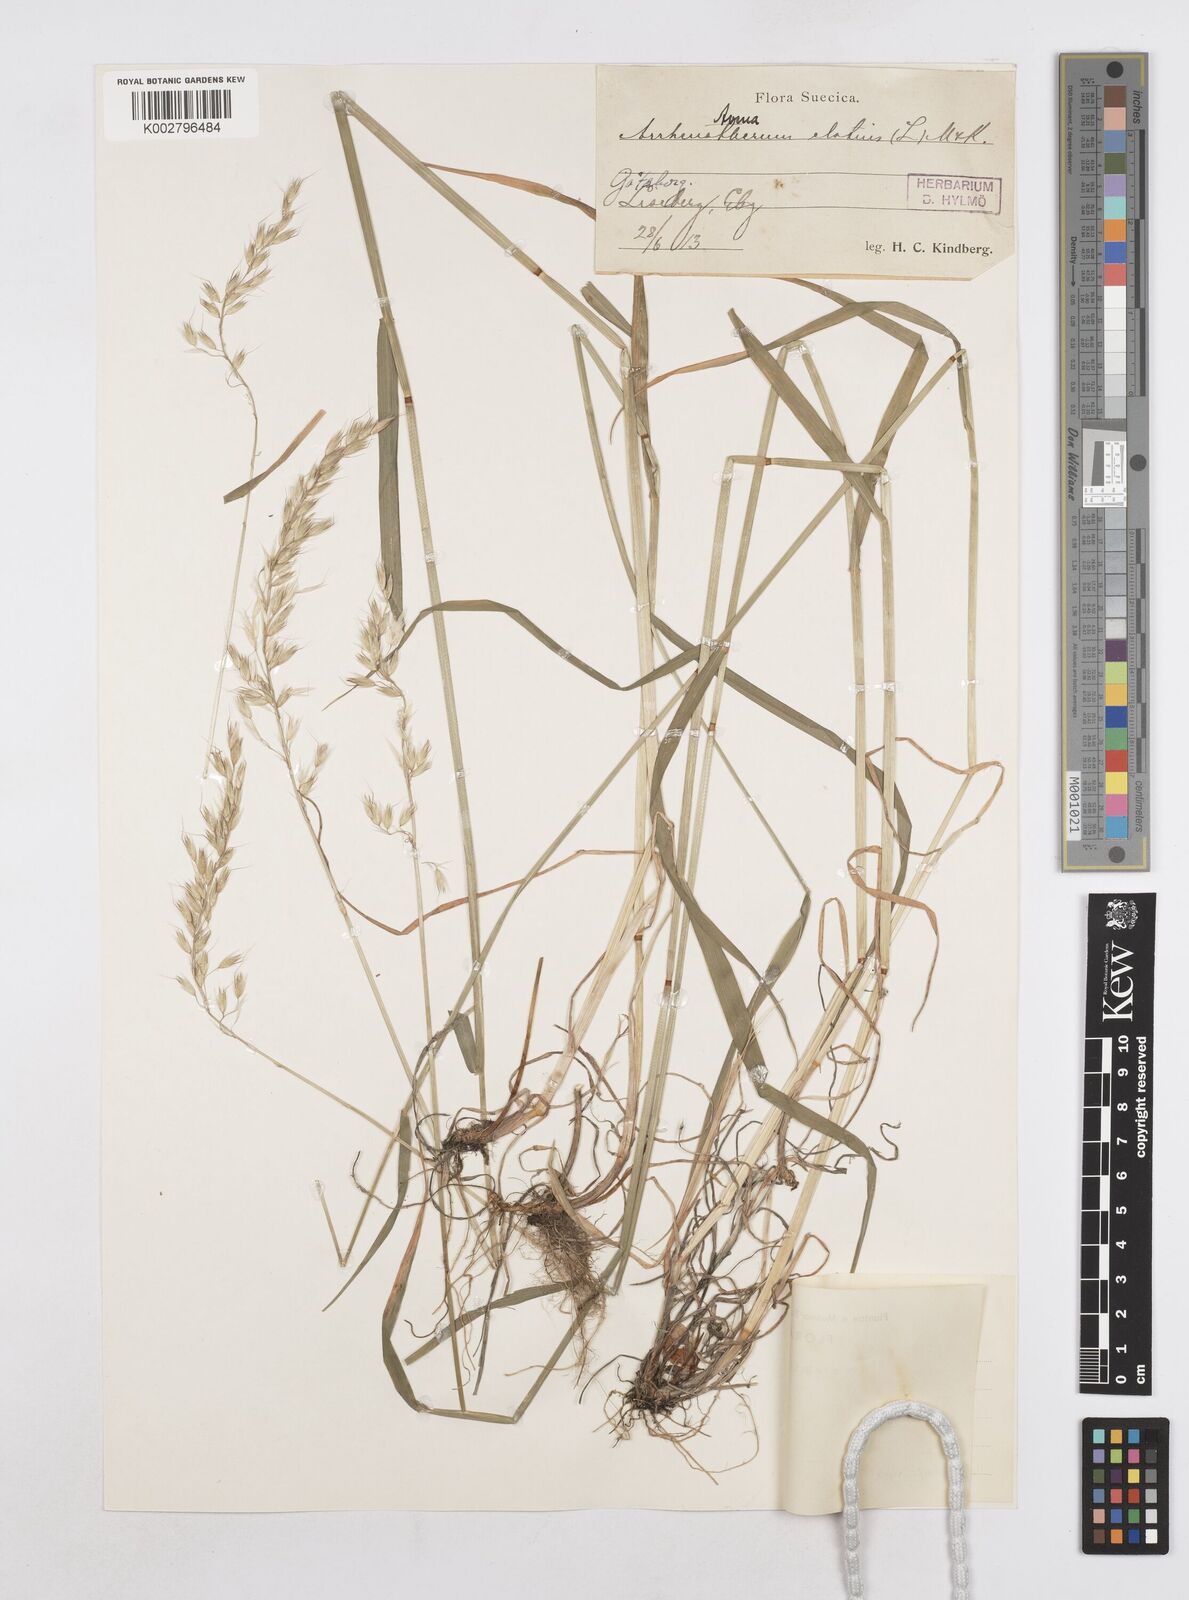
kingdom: Plantae
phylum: Tracheophyta
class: Liliopsida
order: Poales
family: Poaceae
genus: Arrhenatherum
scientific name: Arrhenatherum elatius
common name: Tall oatgrass
